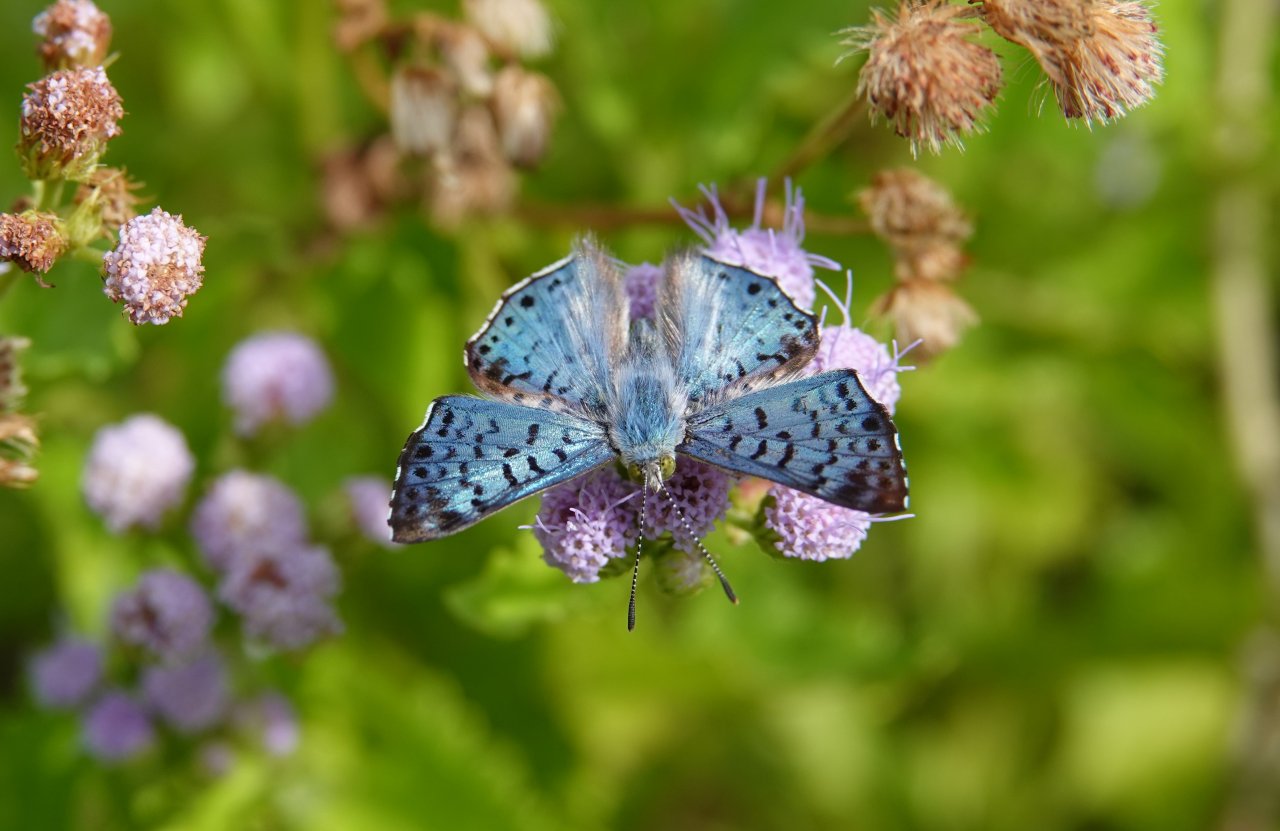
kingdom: Animalia
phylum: Arthropoda
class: Insecta
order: Lepidoptera
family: Riodinidae
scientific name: Riodinidae
